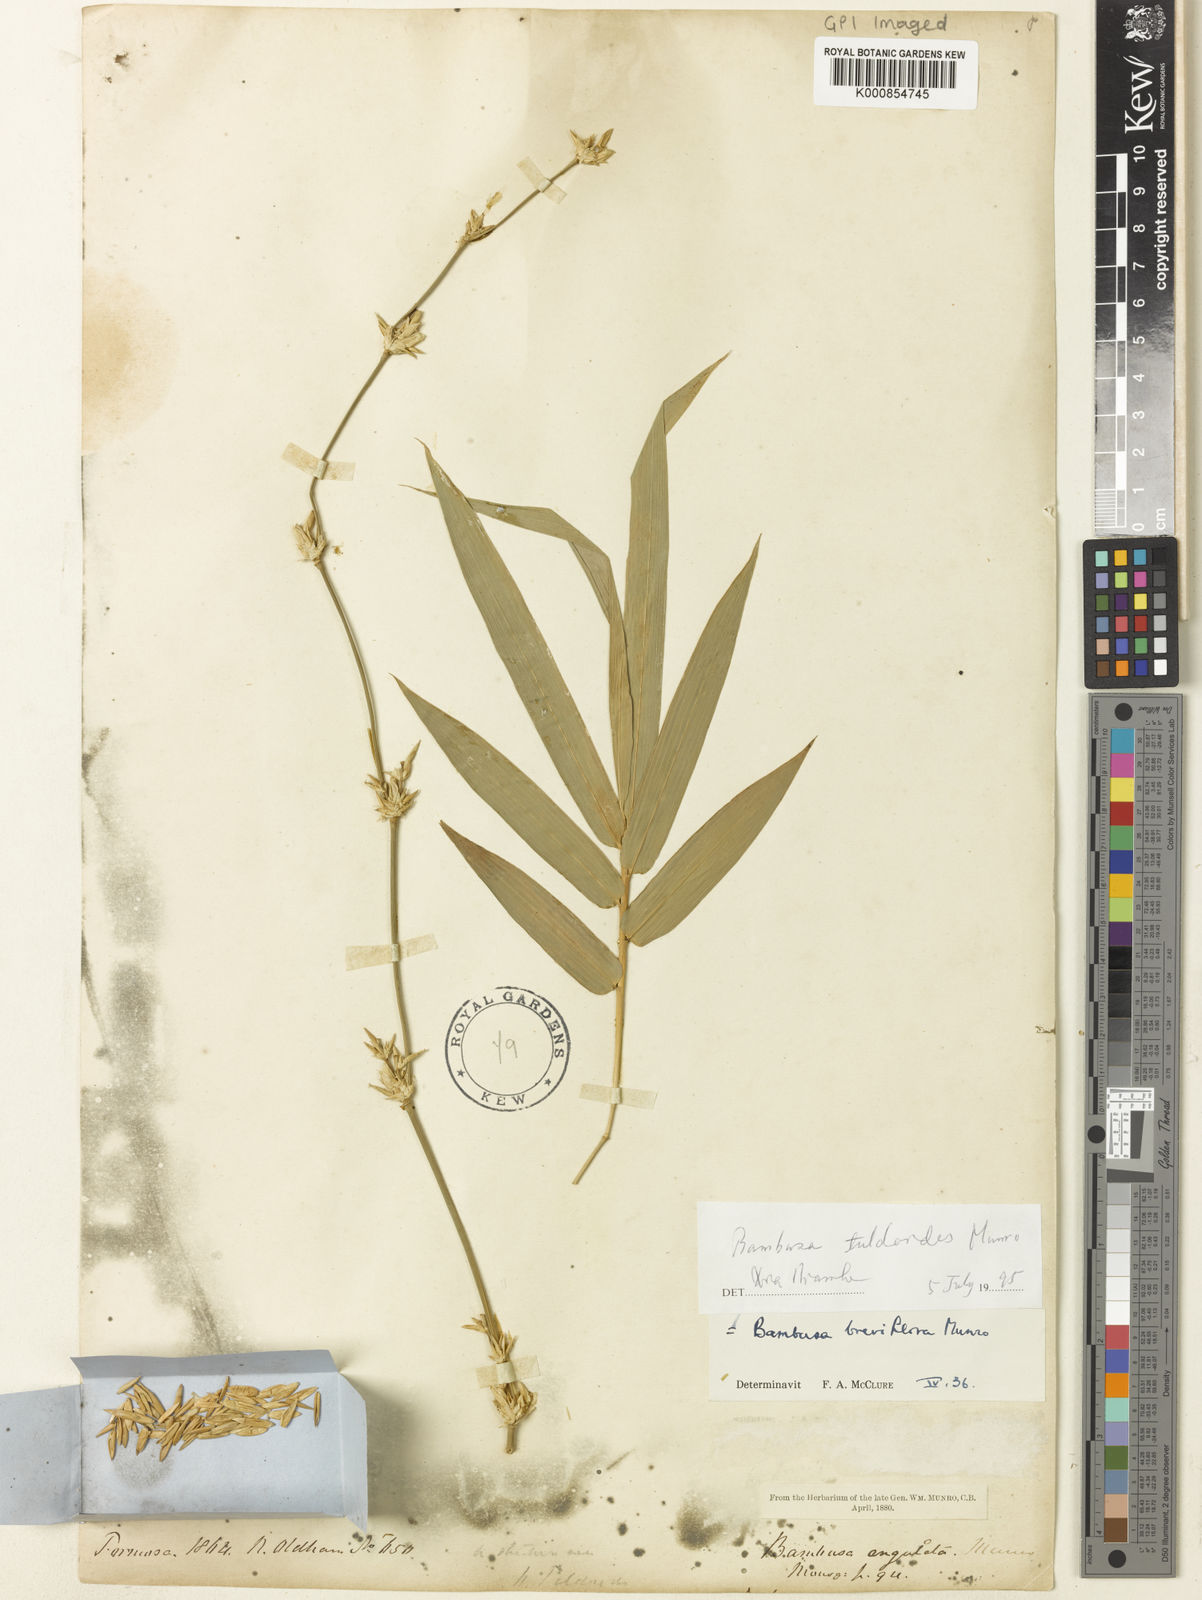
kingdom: Plantae
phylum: Tracheophyta
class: Liliopsida
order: Poales
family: Poaceae
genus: Bambusa
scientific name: Bambusa tuldoides
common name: Verdant bamboo
